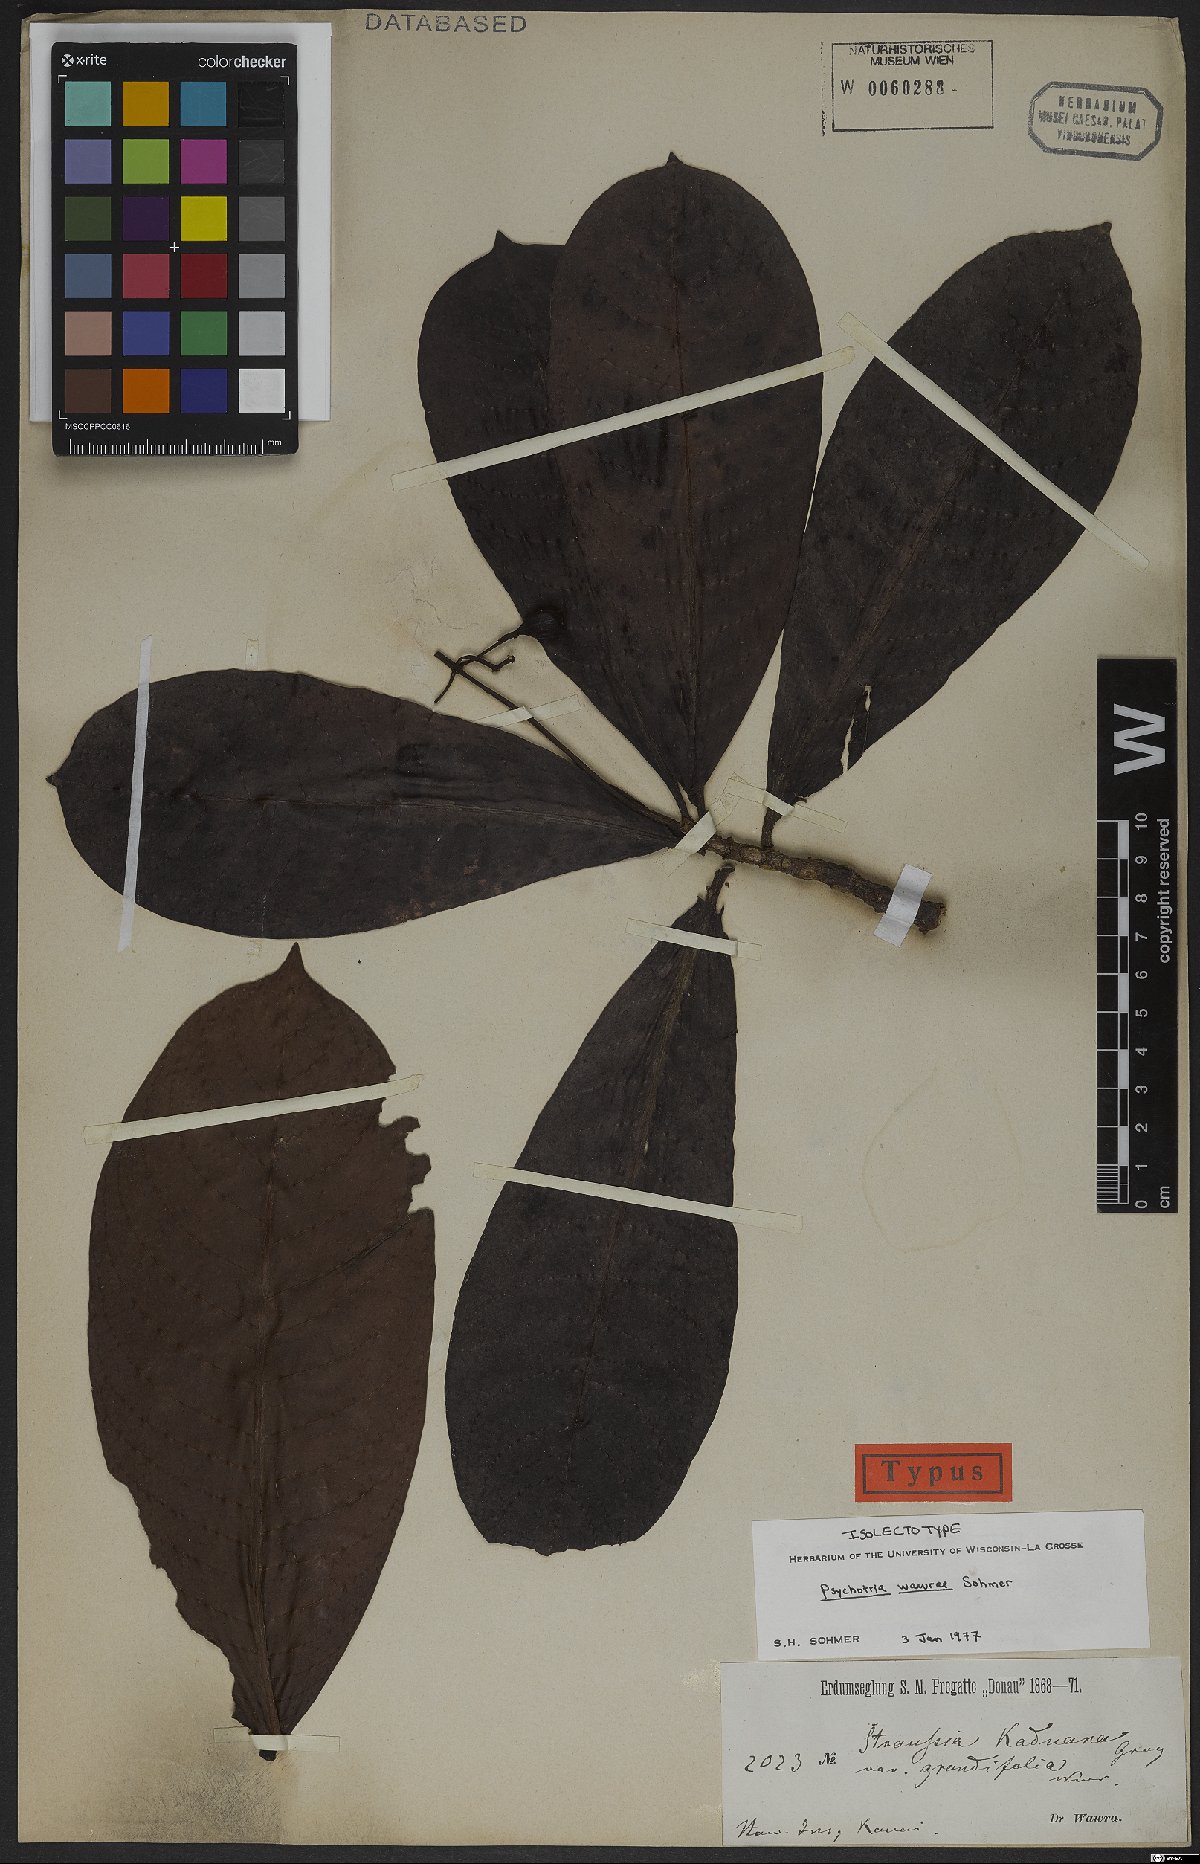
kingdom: Plantae
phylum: Tracheophyta
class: Magnoliopsida
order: Gentianales
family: Rubiaceae
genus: Psychotria
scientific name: Psychotria wawrana
